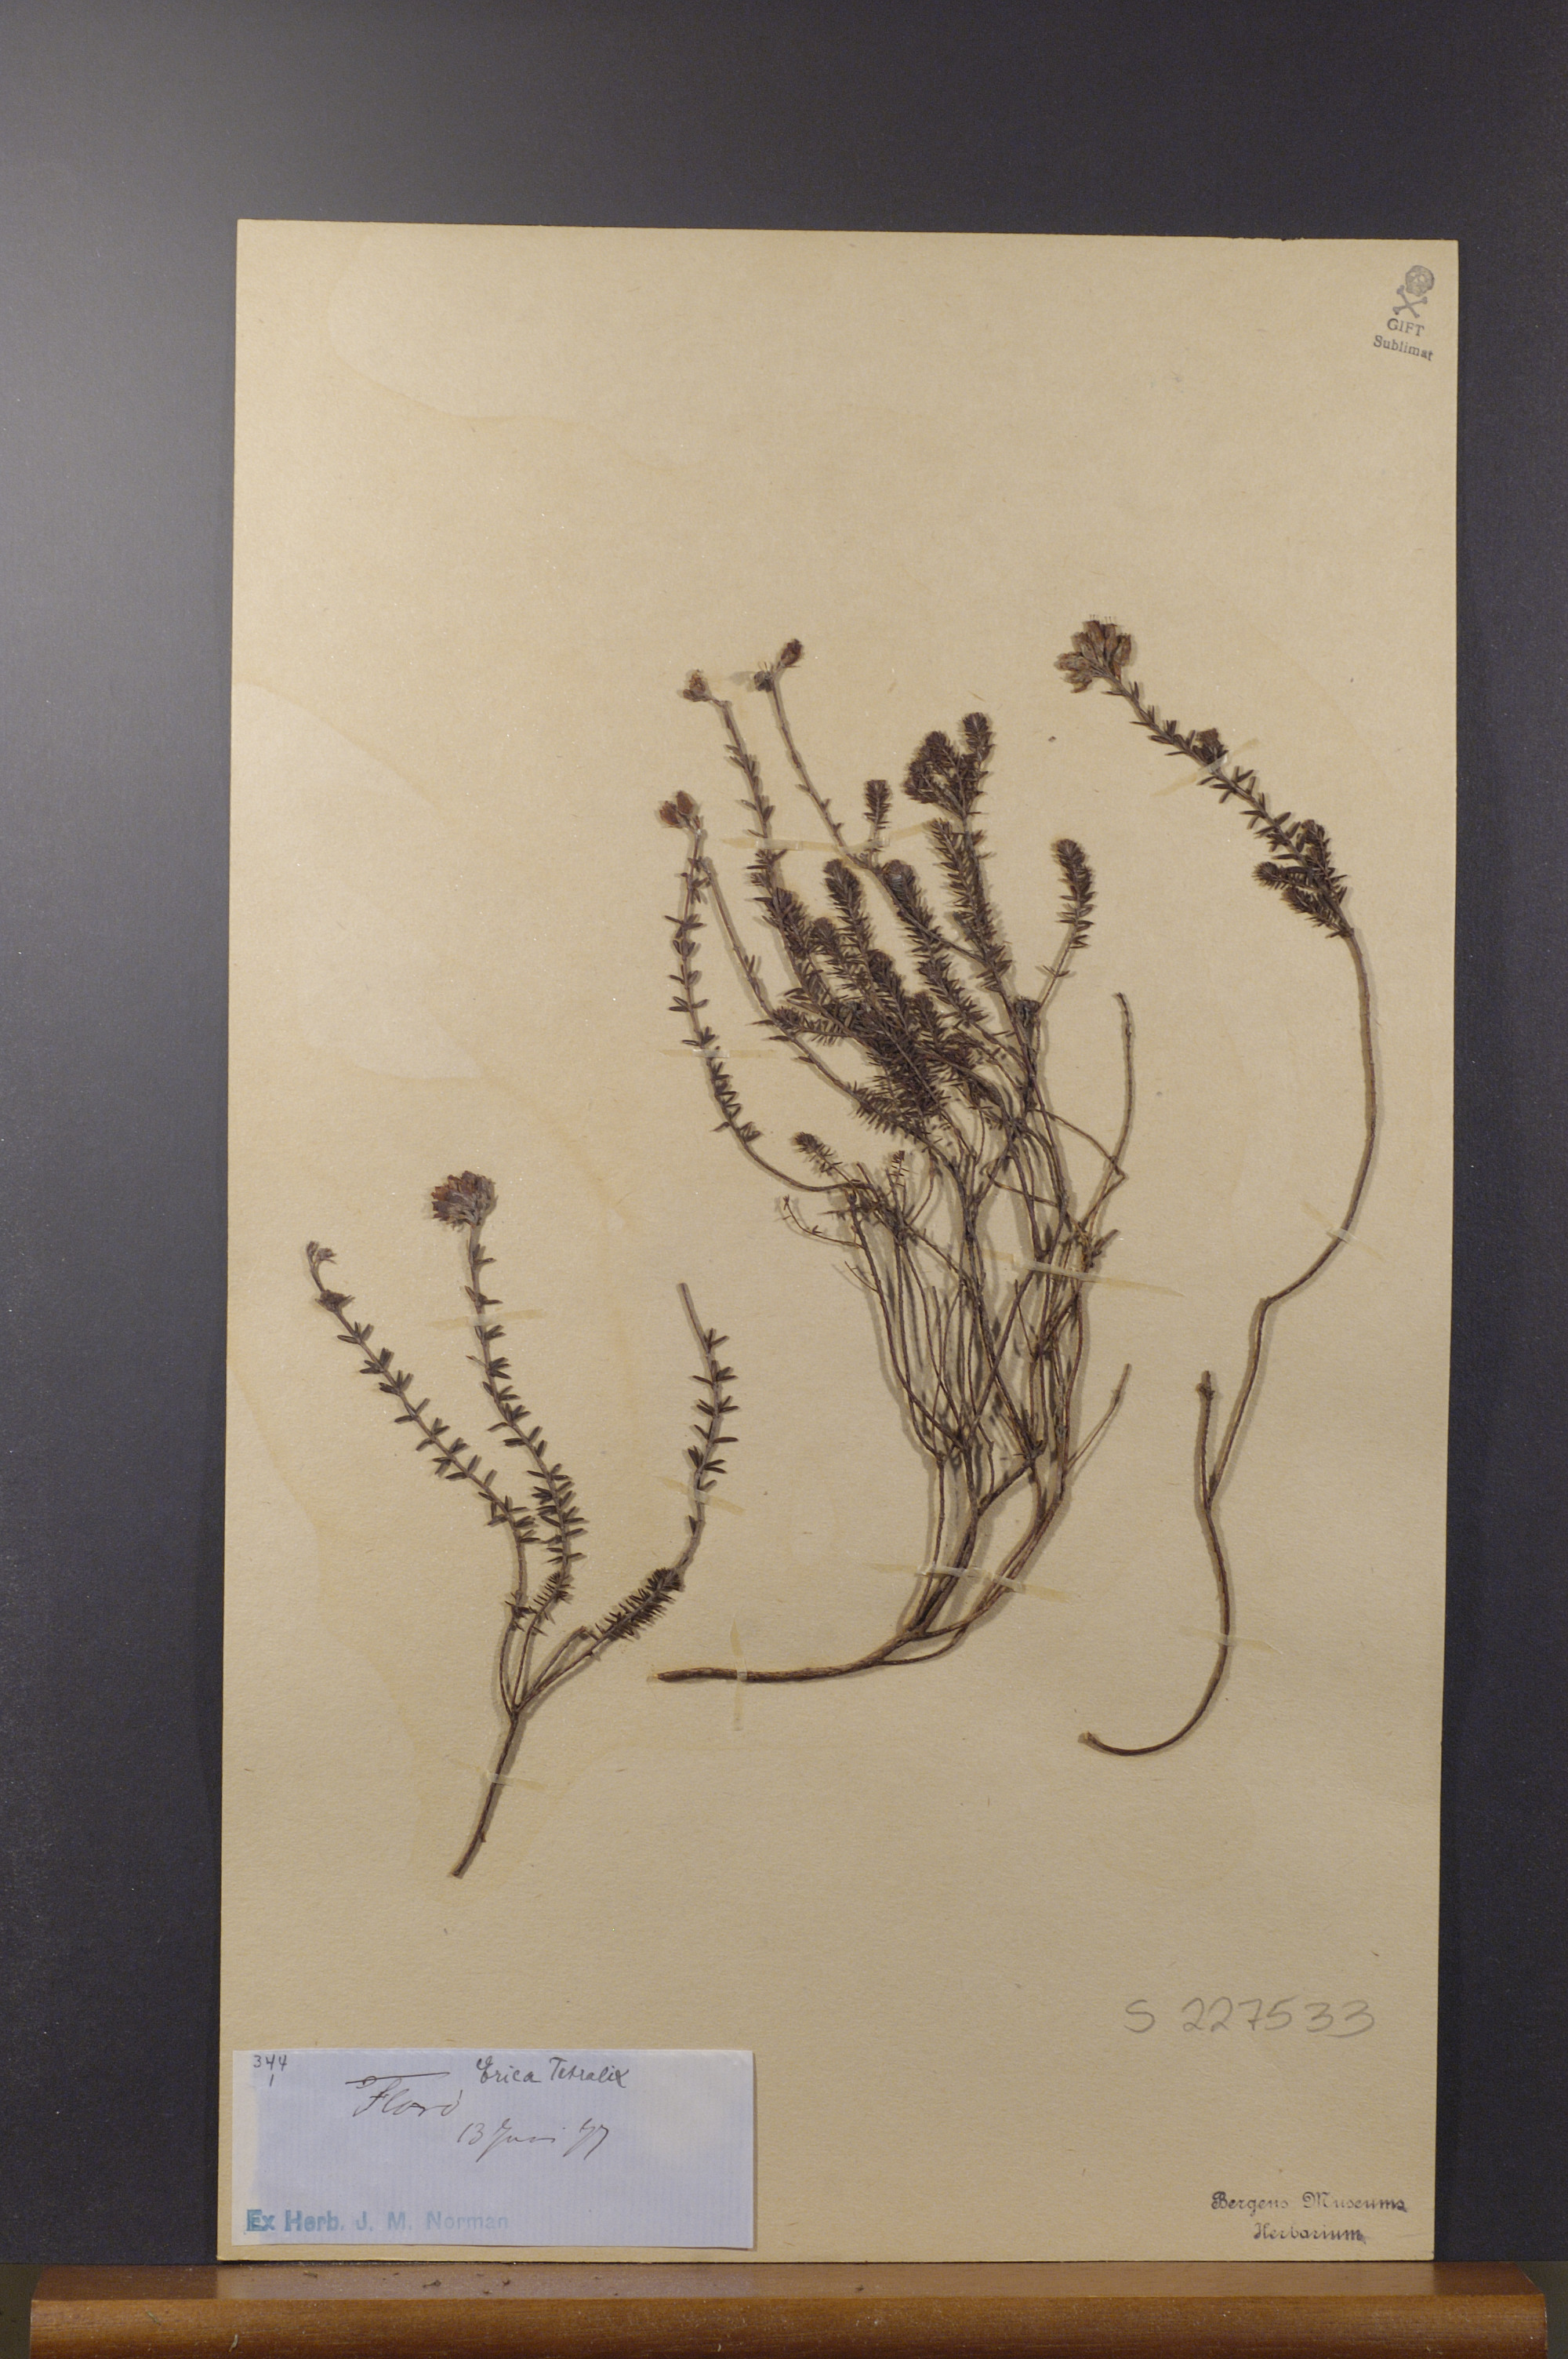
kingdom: Plantae
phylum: Tracheophyta
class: Magnoliopsida
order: Ericales
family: Ericaceae
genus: Erica
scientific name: Erica tetralix
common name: Cross-leaved heath
